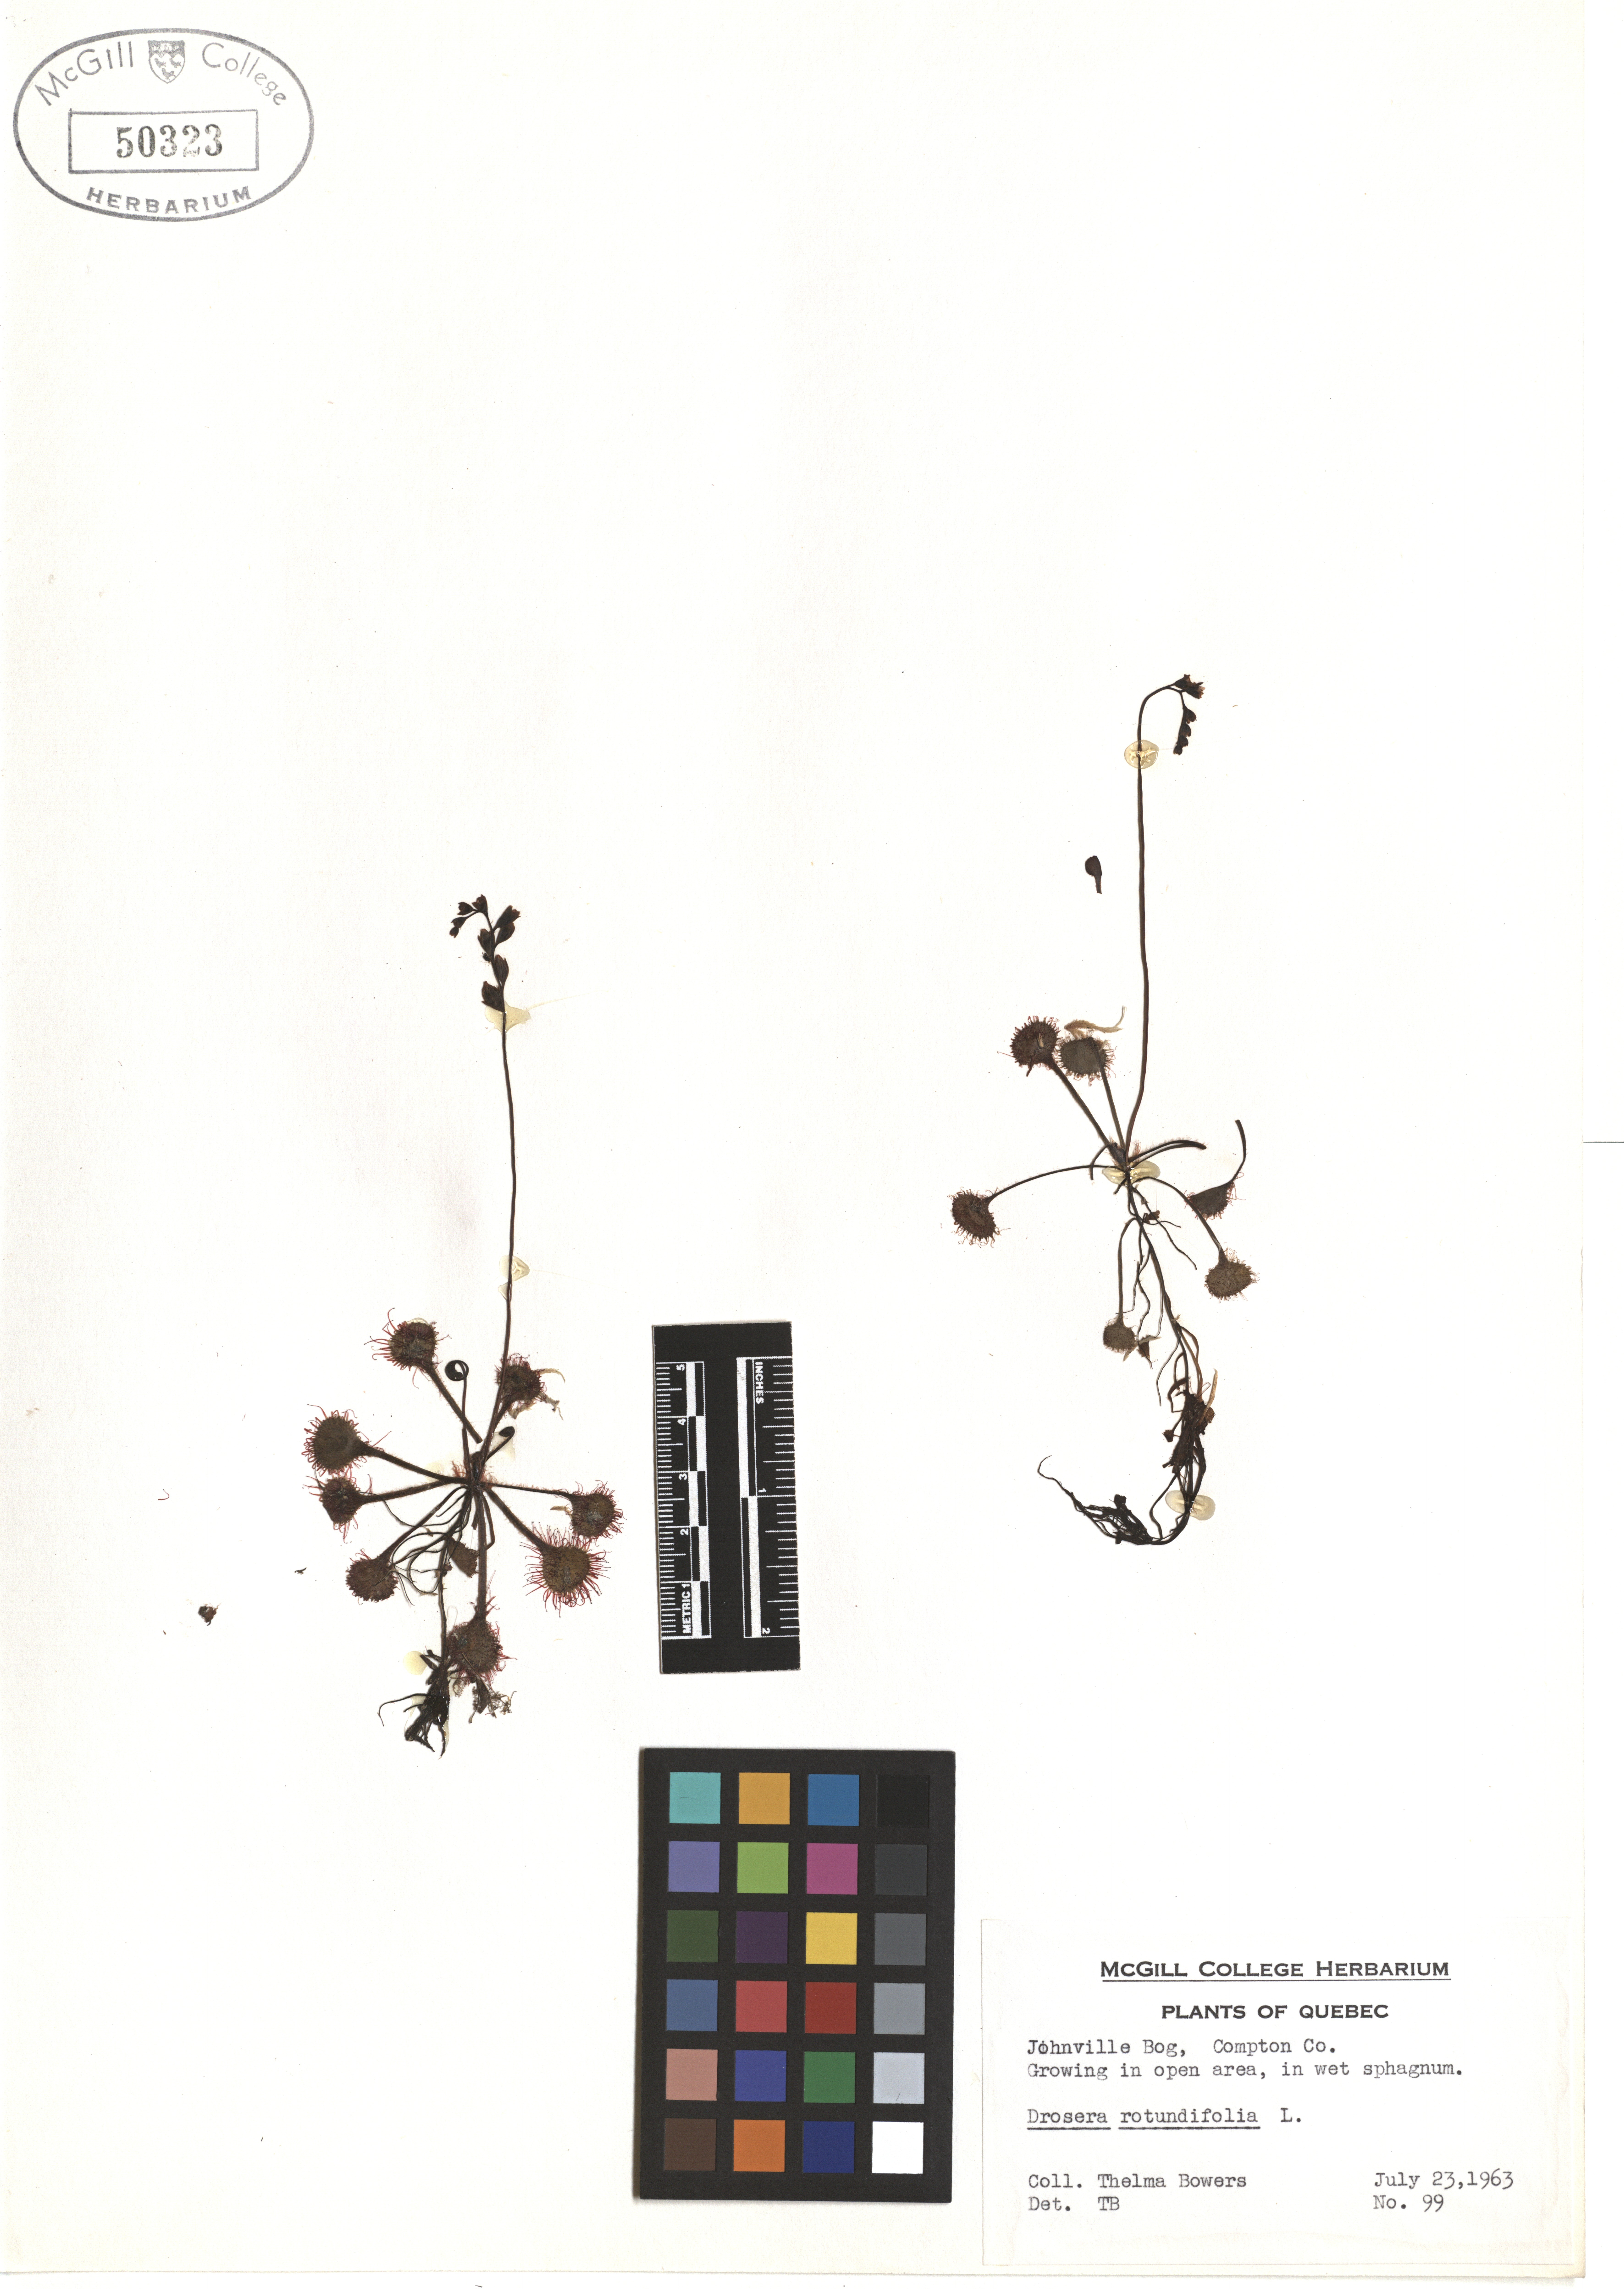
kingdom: Plantae
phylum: Tracheophyta
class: Magnoliopsida
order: Caryophyllales
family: Droseraceae
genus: Drosera
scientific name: Drosera rotundifolia
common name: Round-leaved sundew
